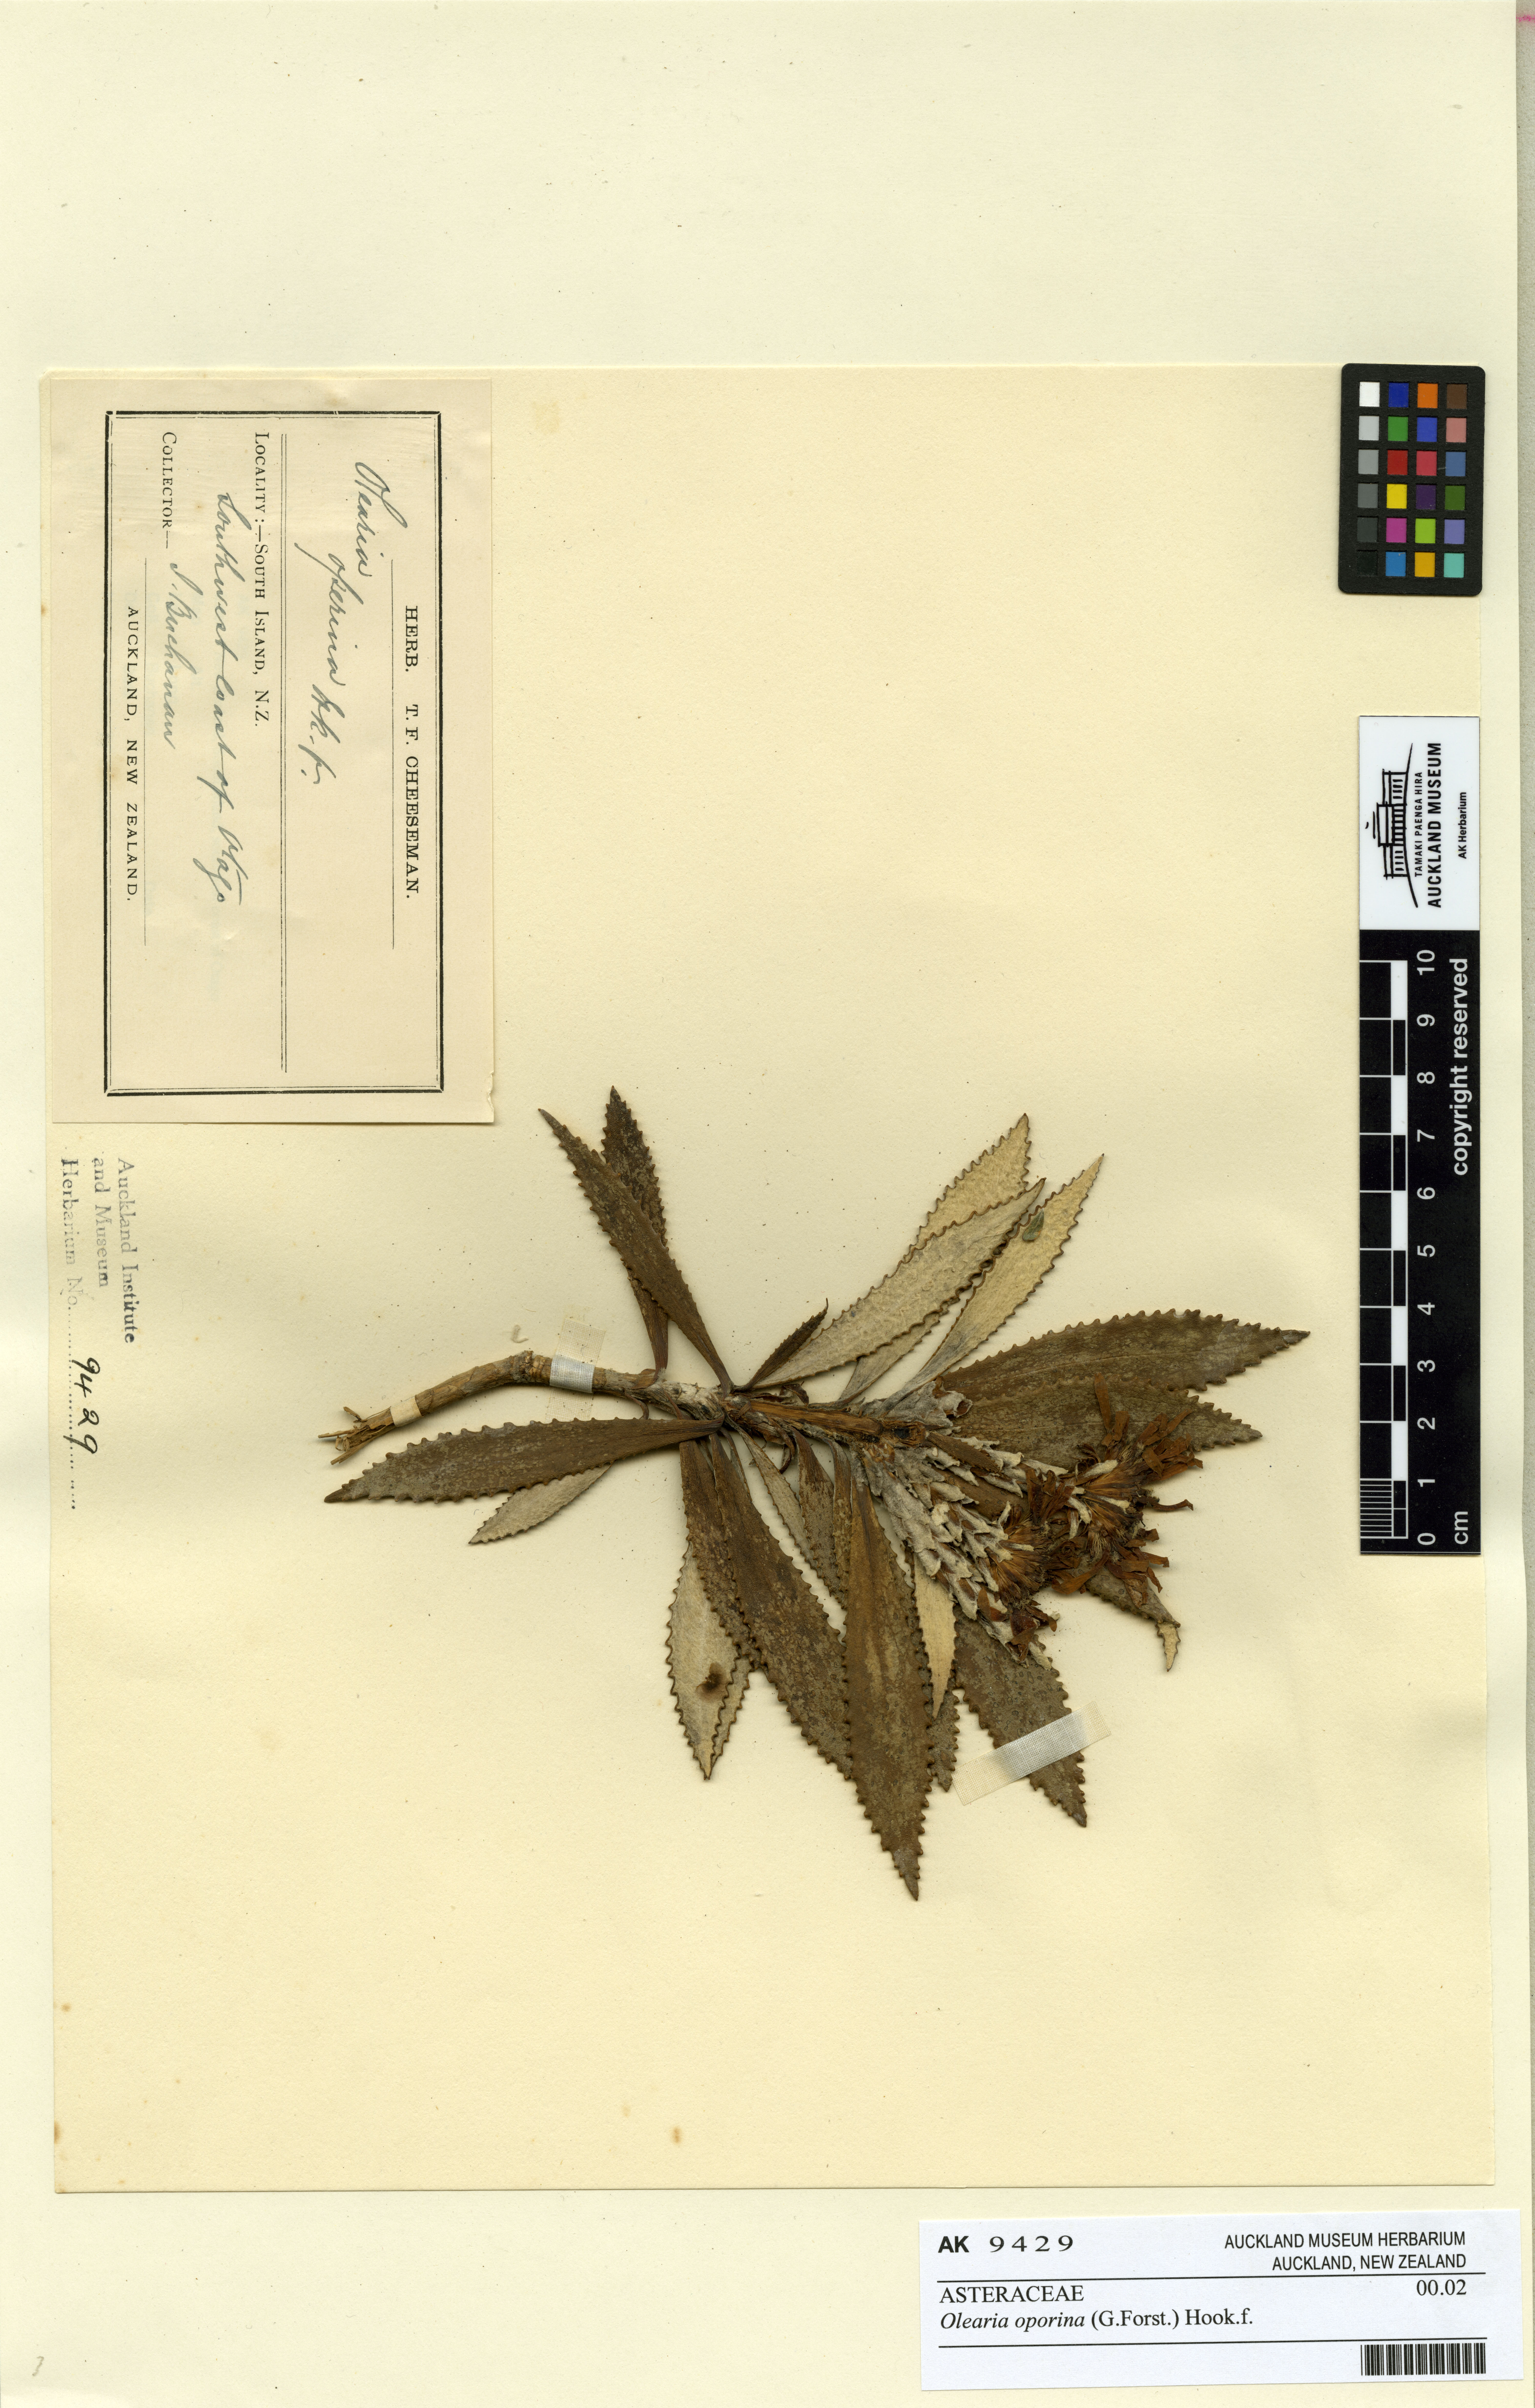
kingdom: Plantae
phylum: Tracheophyta
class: Magnoliopsida
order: Asterales
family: Asteraceae
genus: Macrolearia
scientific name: Macrolearia oporina
